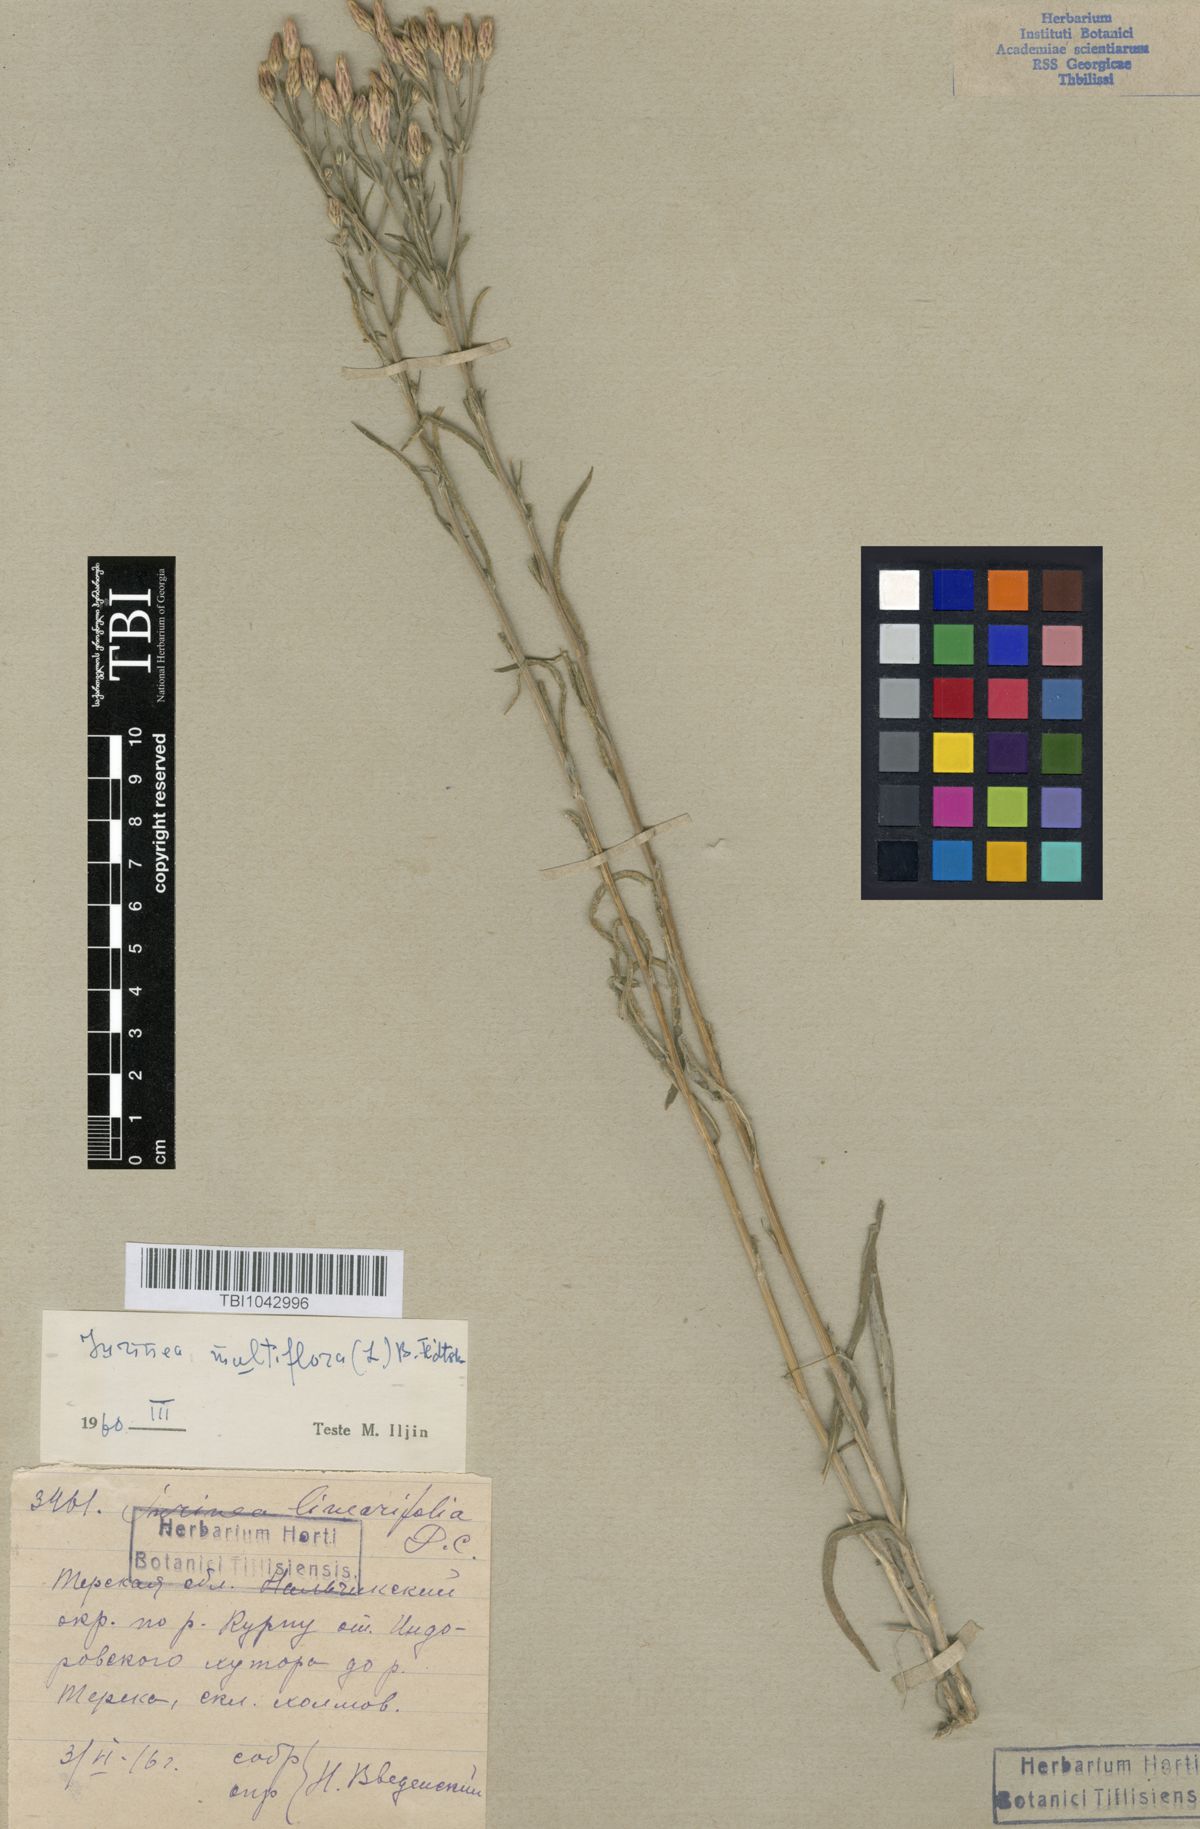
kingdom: Plantae
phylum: Tracheophyta
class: Magnoliopsida
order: Asterales
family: Asteraceae
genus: Jurinea
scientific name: Jurinea multiflora
